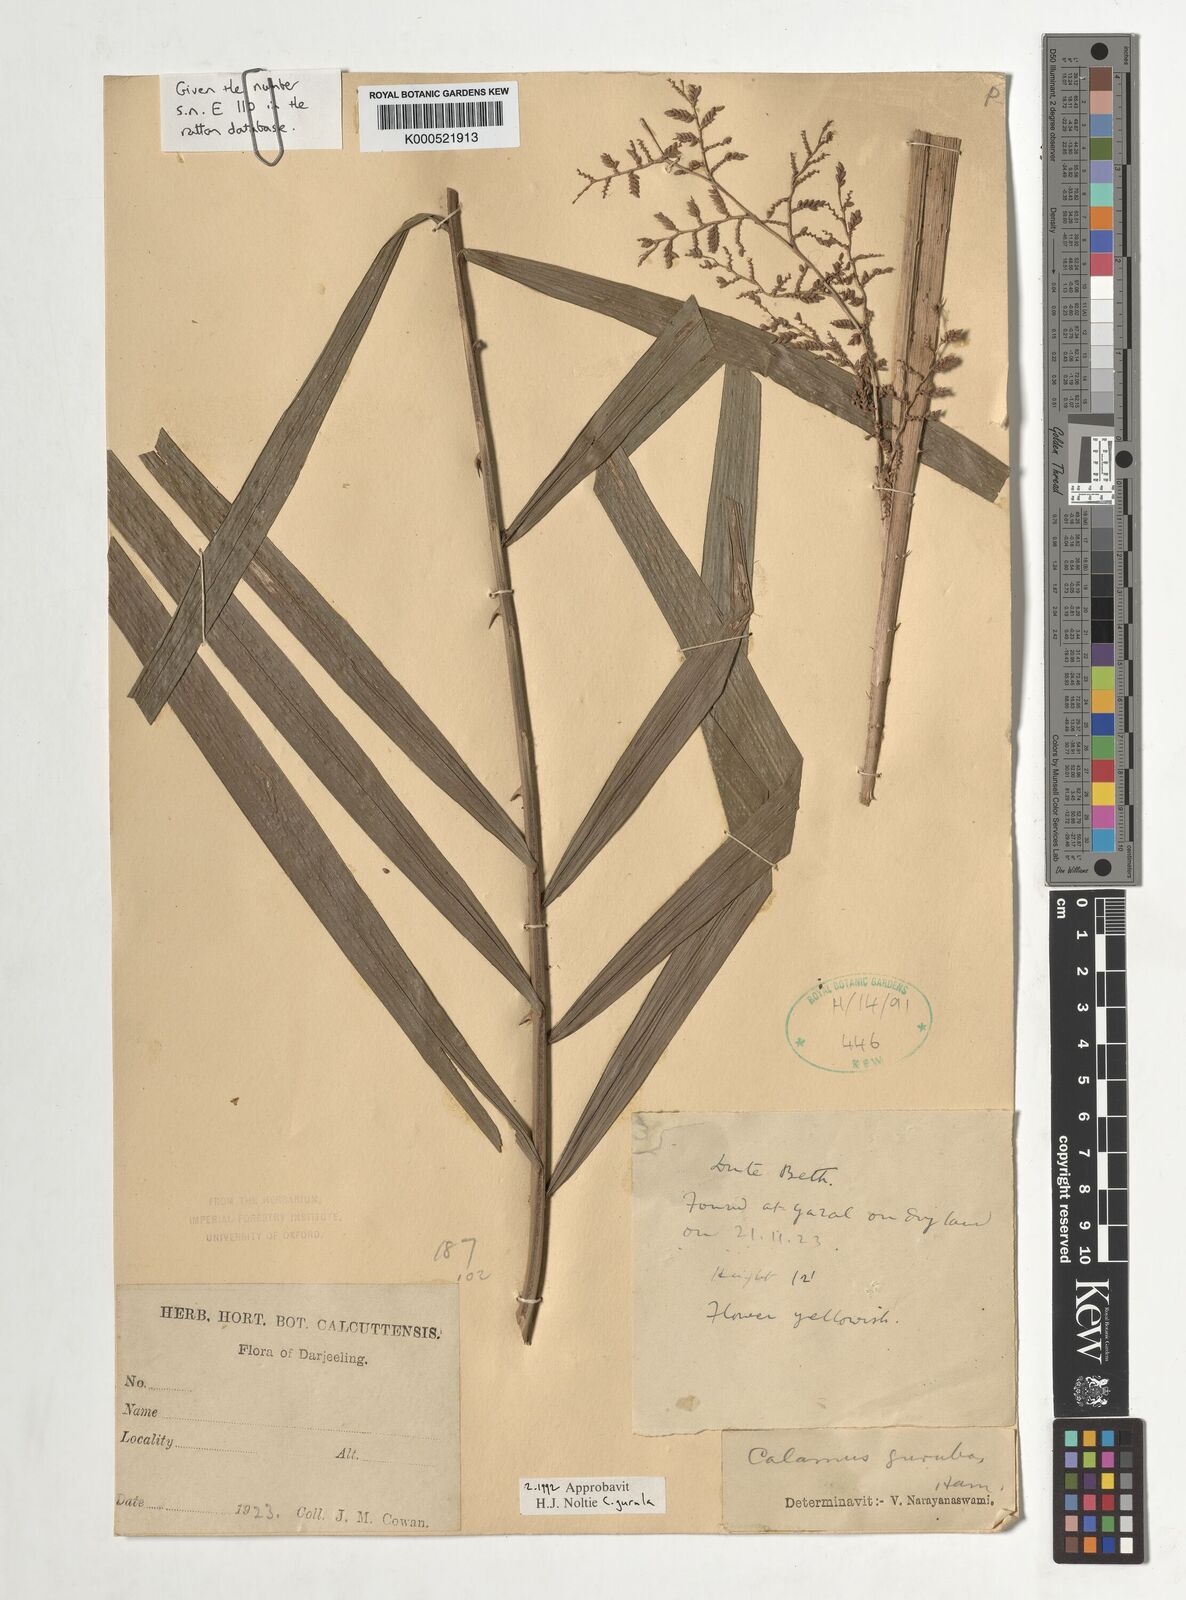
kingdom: Plantae
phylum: Tracheophyta
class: Liliopsida
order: Arecales
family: Arecaceae
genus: Calamus
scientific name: Calamus
